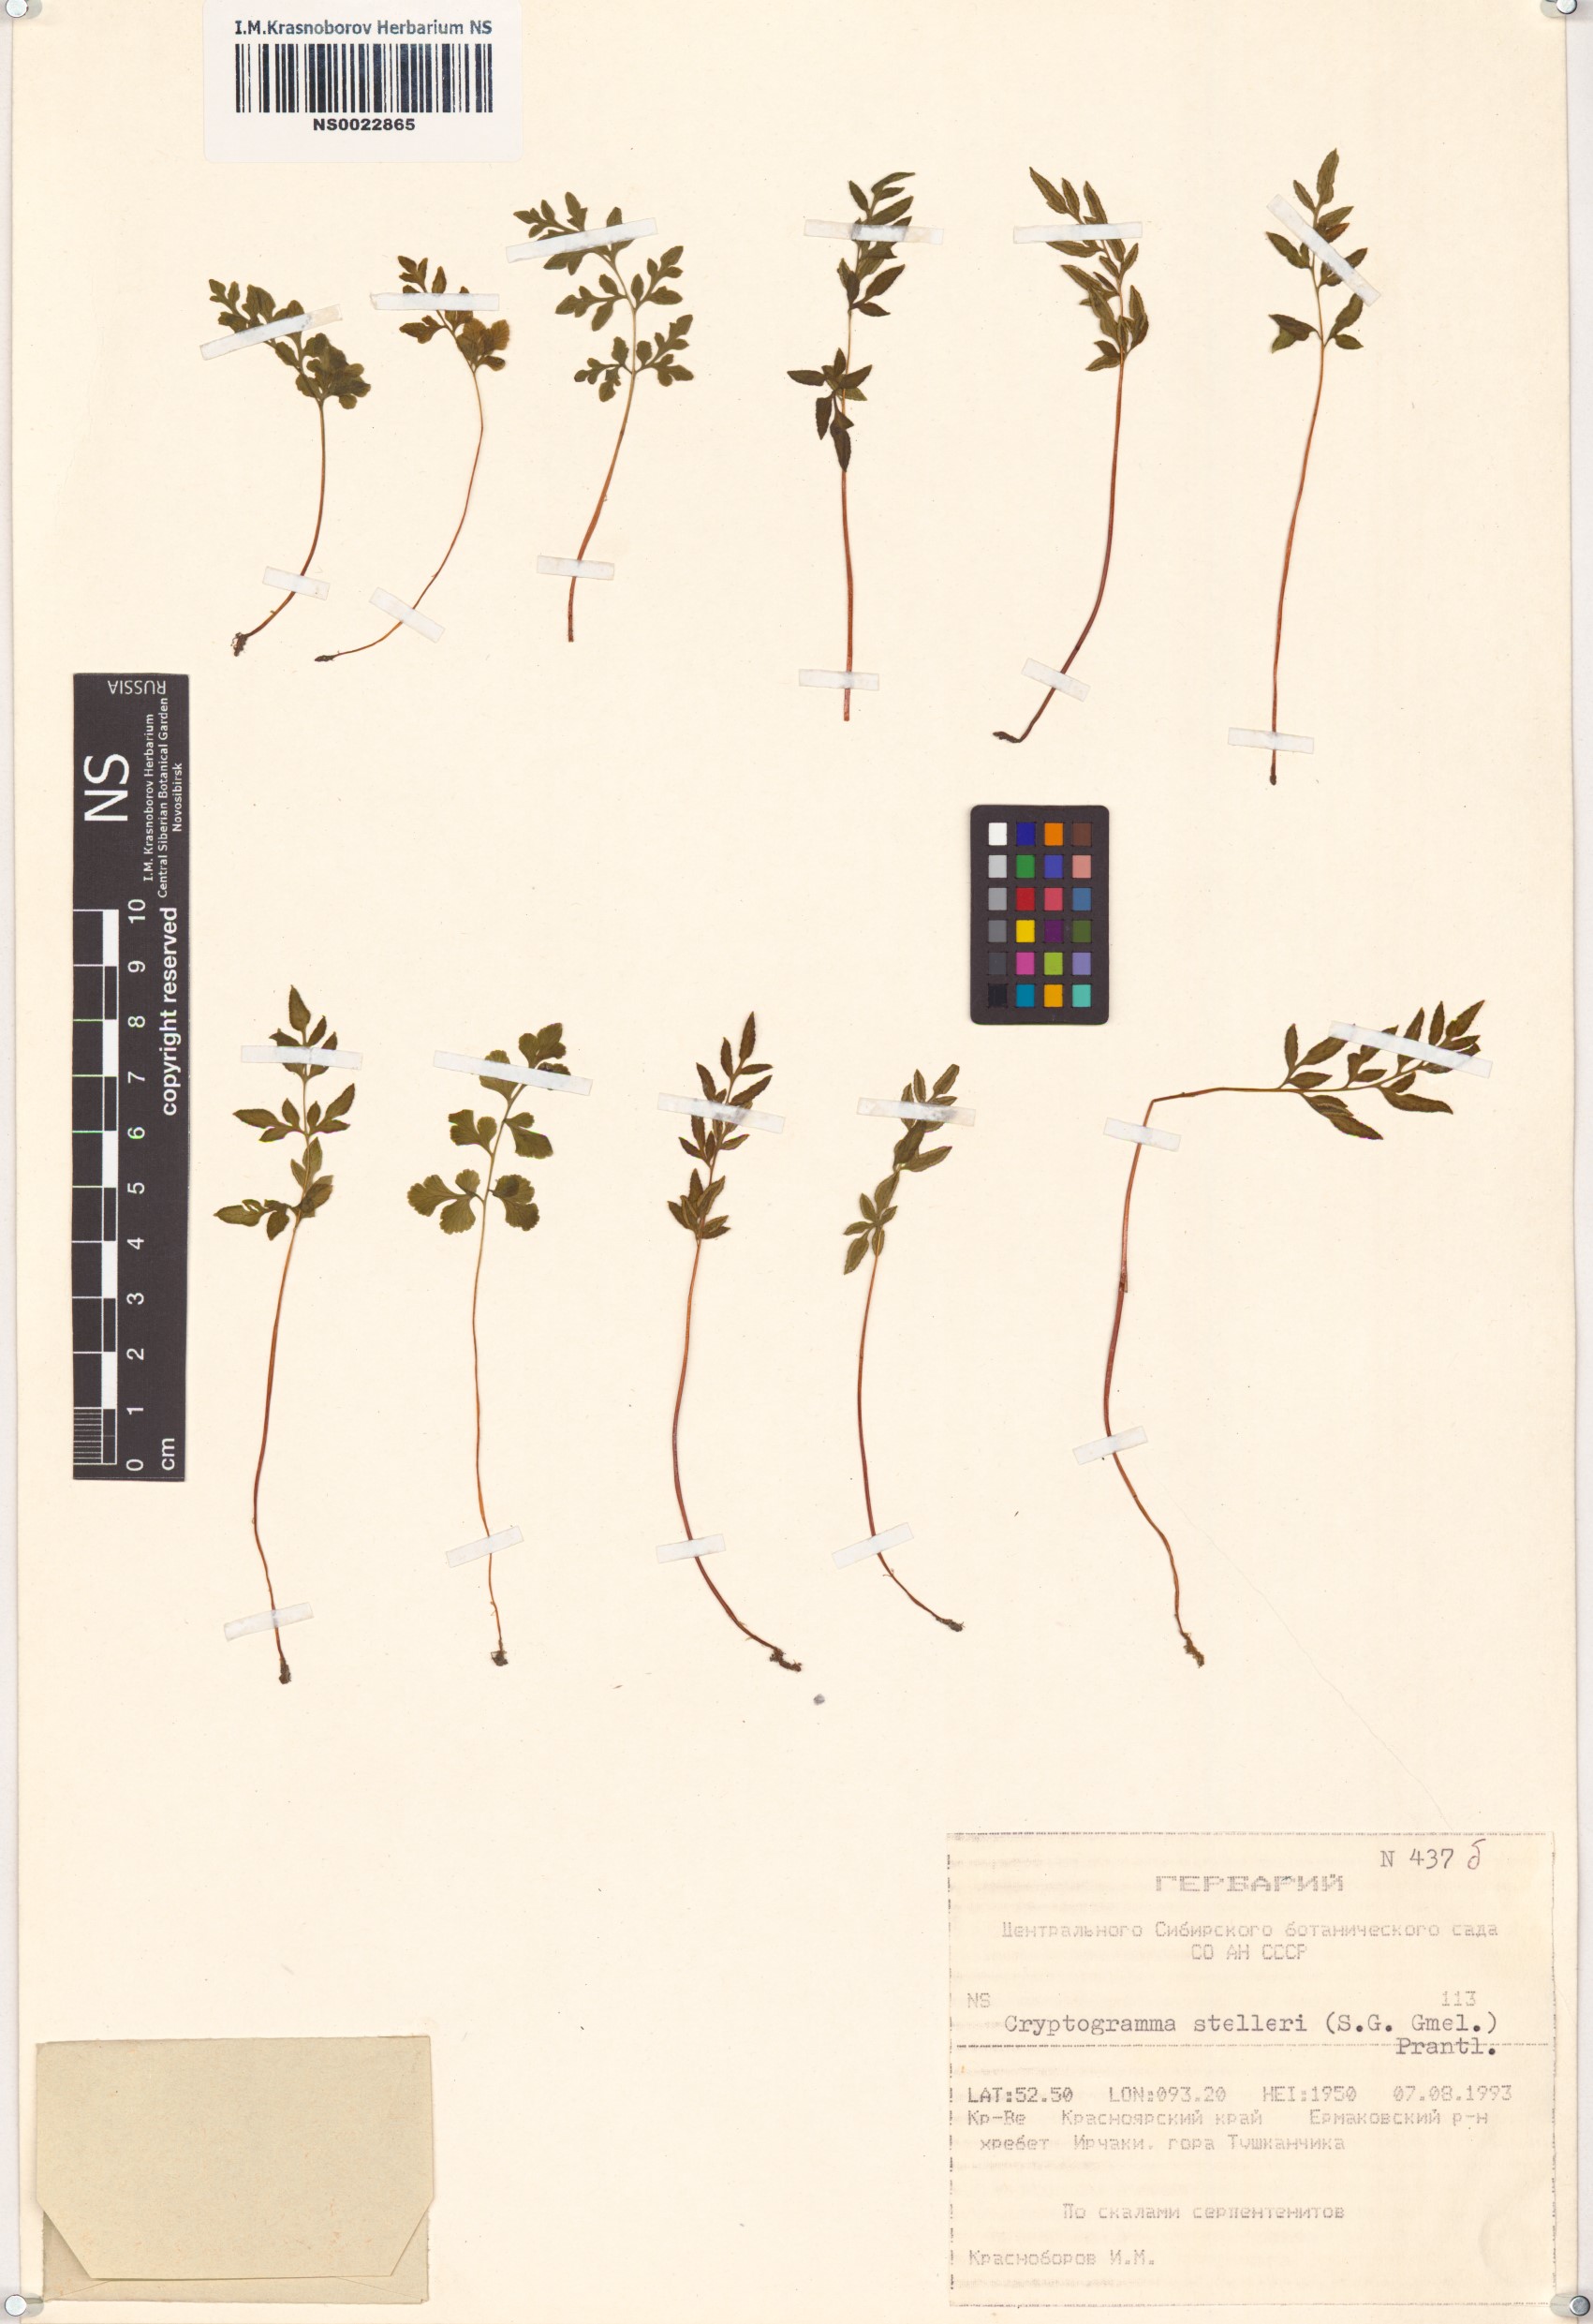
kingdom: Plantae
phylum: Tracheophyta
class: Polypodiopsida
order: Polypodiales
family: Pteridaceae
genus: Cryptogramma
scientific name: Cryptogramma stelleri
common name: Cliff-brake
